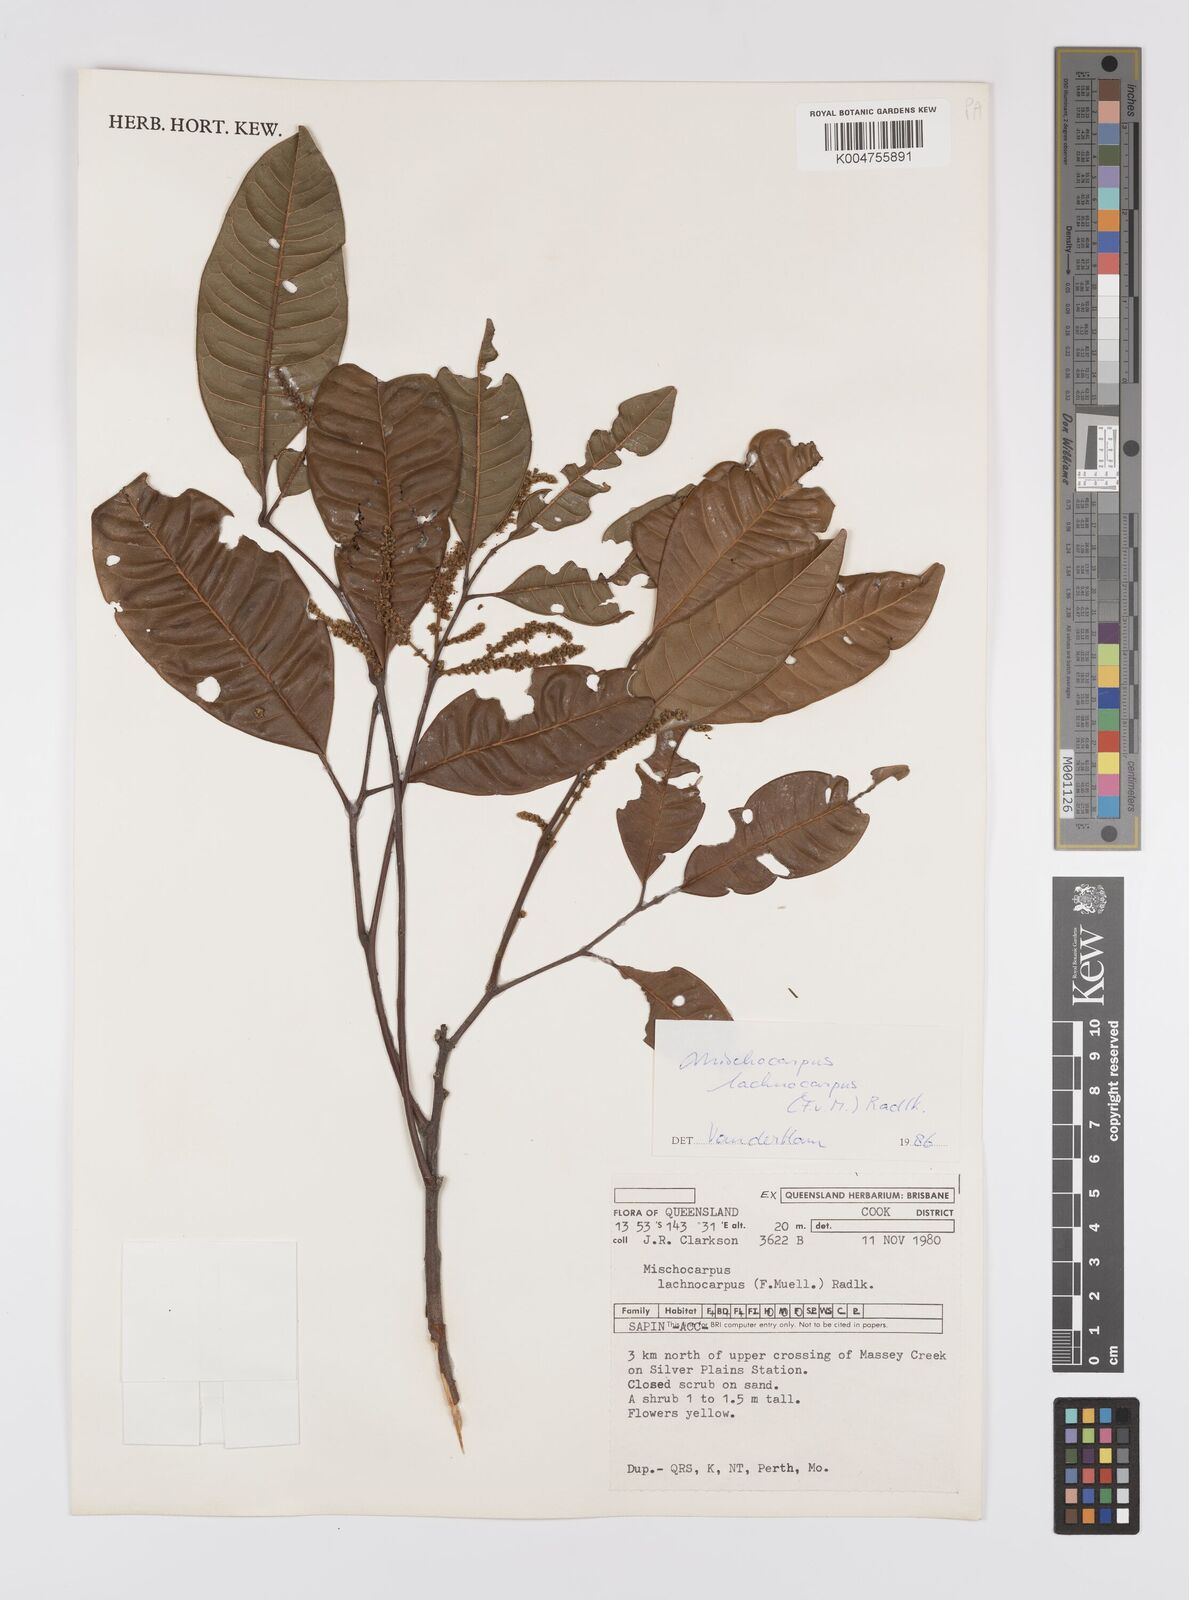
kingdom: Plantae
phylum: Tracheophyta
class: Magnoliopsida
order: Sapindales
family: Sapindaceae
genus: Mischocarpus
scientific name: Mischocarpus lachnocarpus
